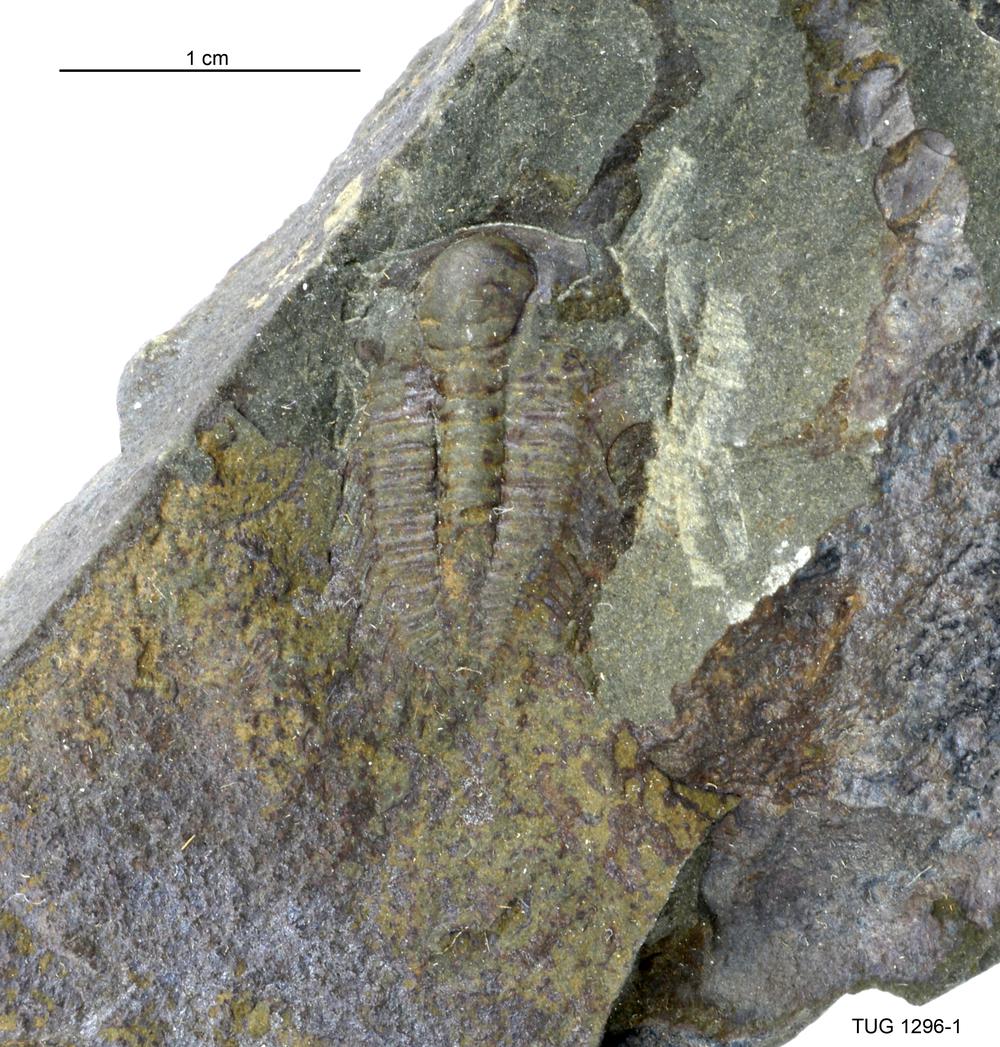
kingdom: Animalia
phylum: Arthropoda
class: Trilobita
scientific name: Trilobita
